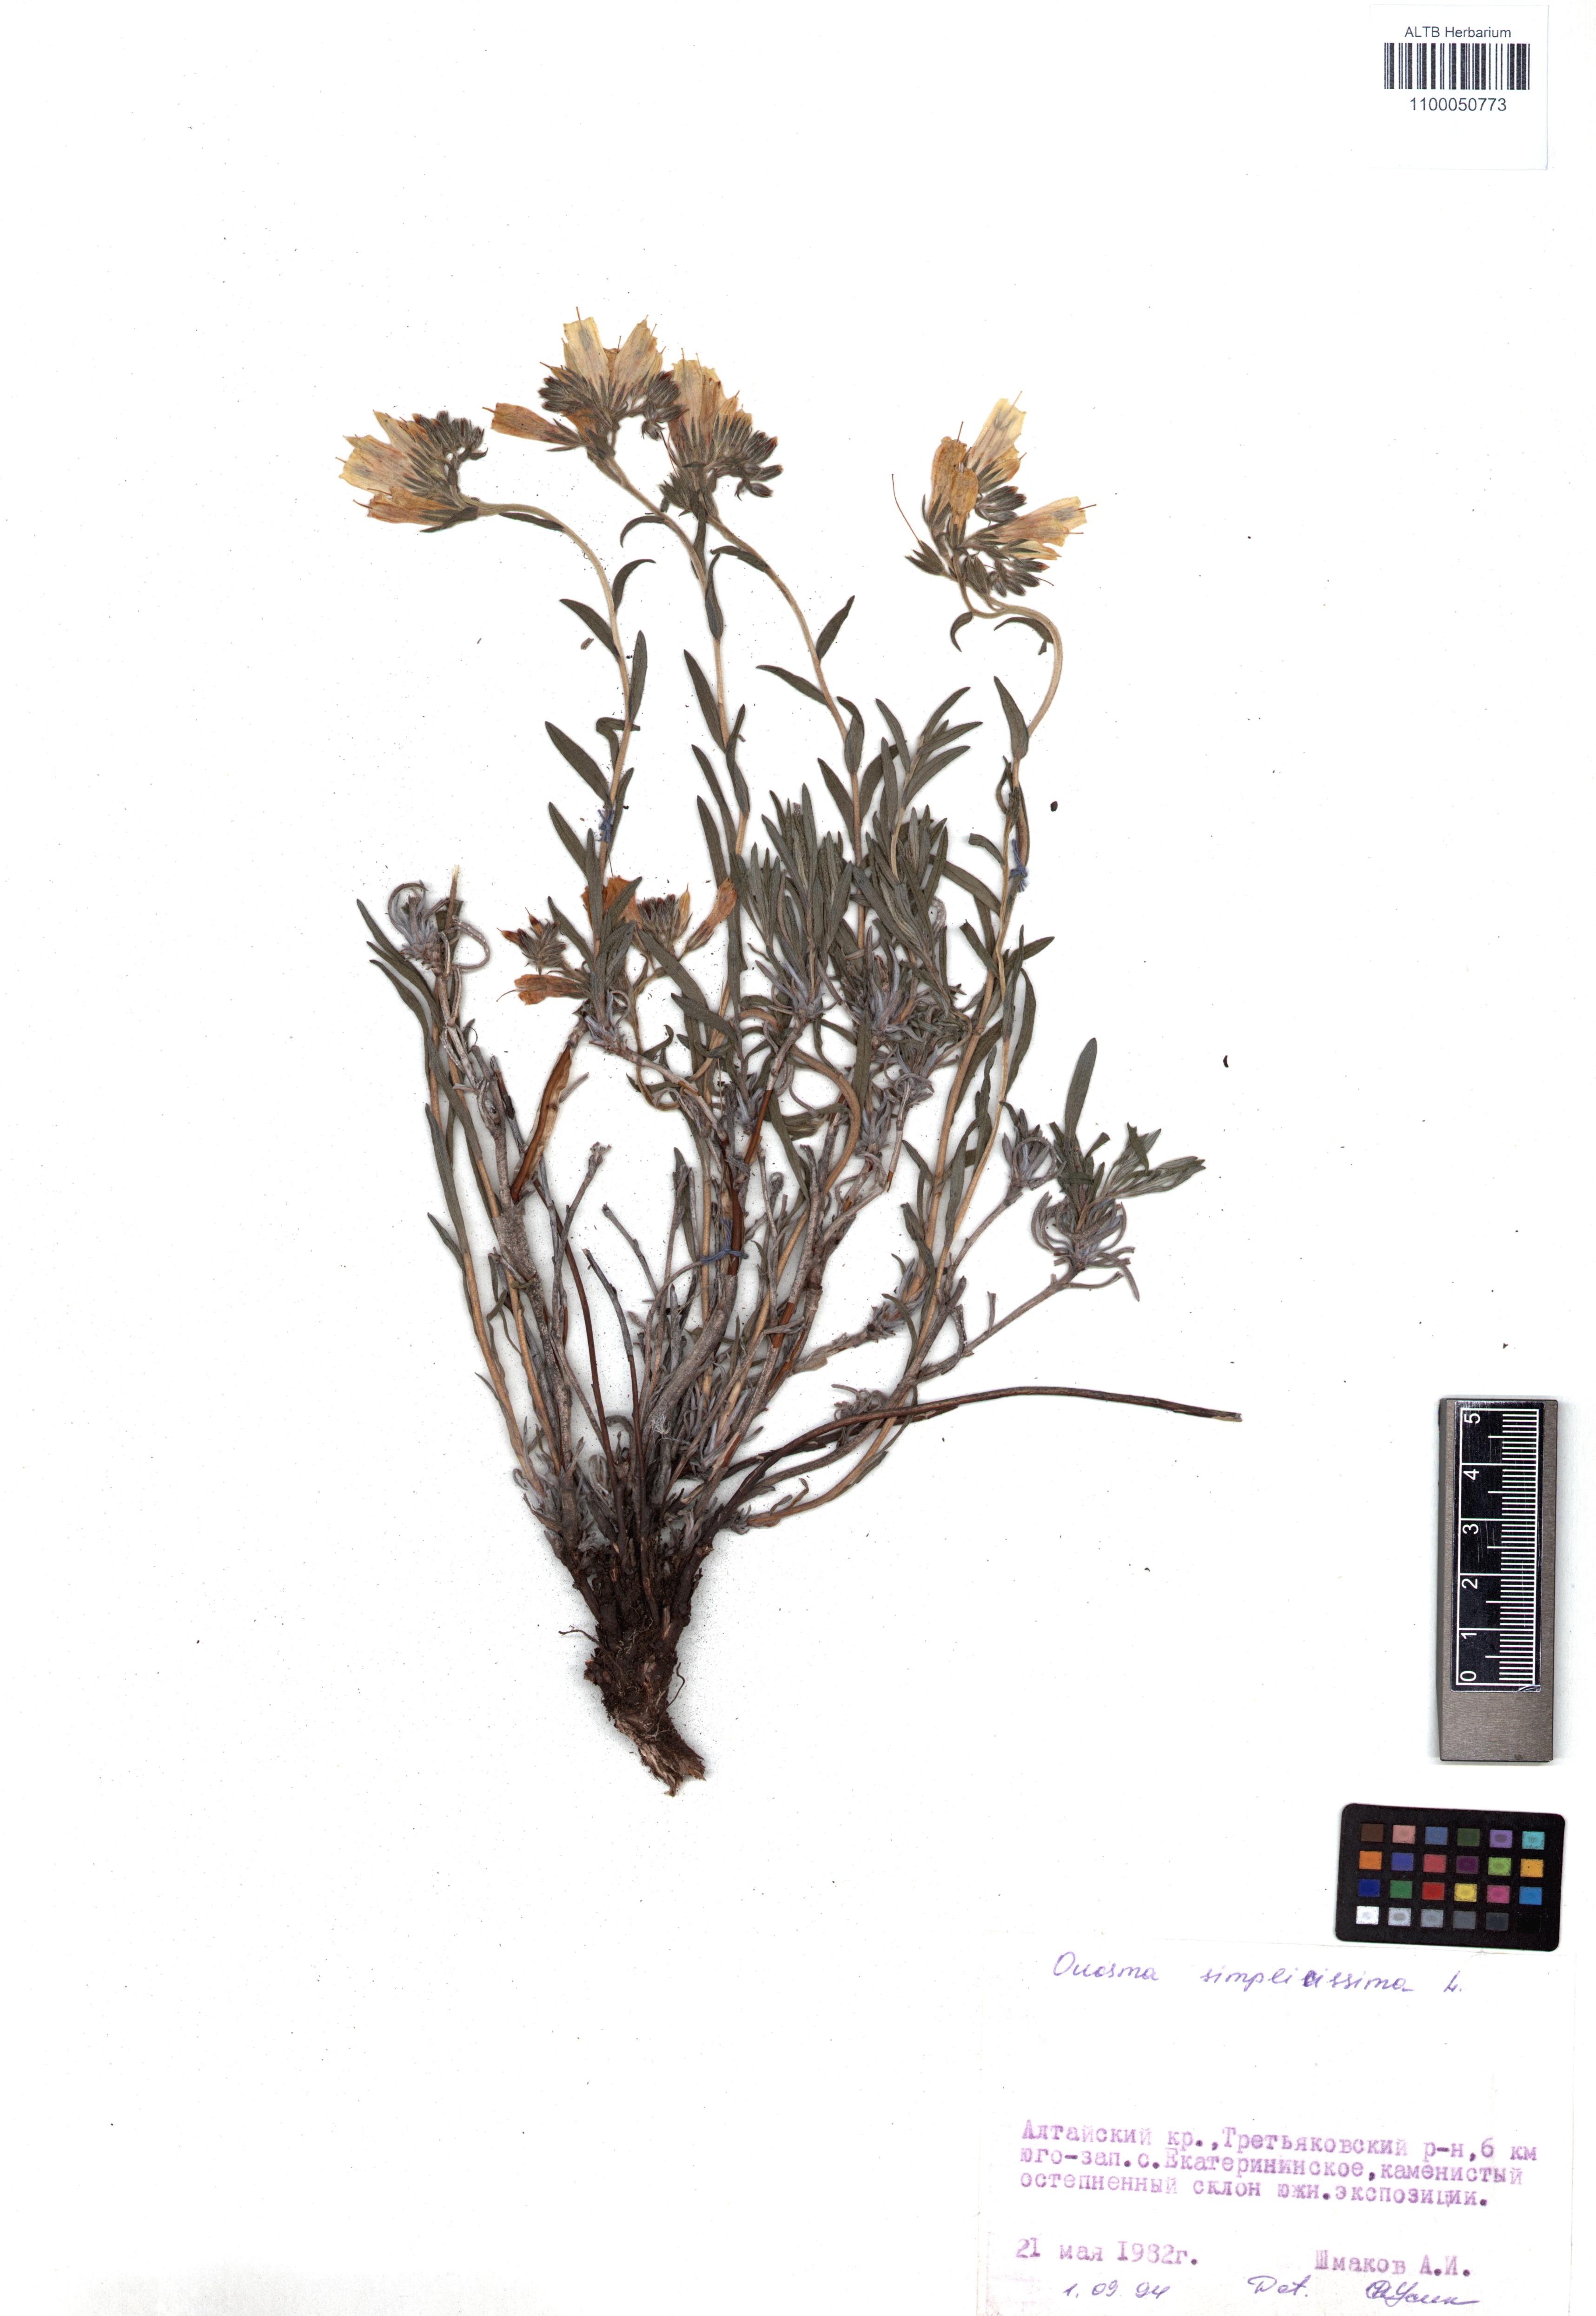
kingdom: Plantae
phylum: Tracheophyta
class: Magnoliopsida
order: Boraginales
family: Boraginaceae
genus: Onosma
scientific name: Onosma simplicissima
